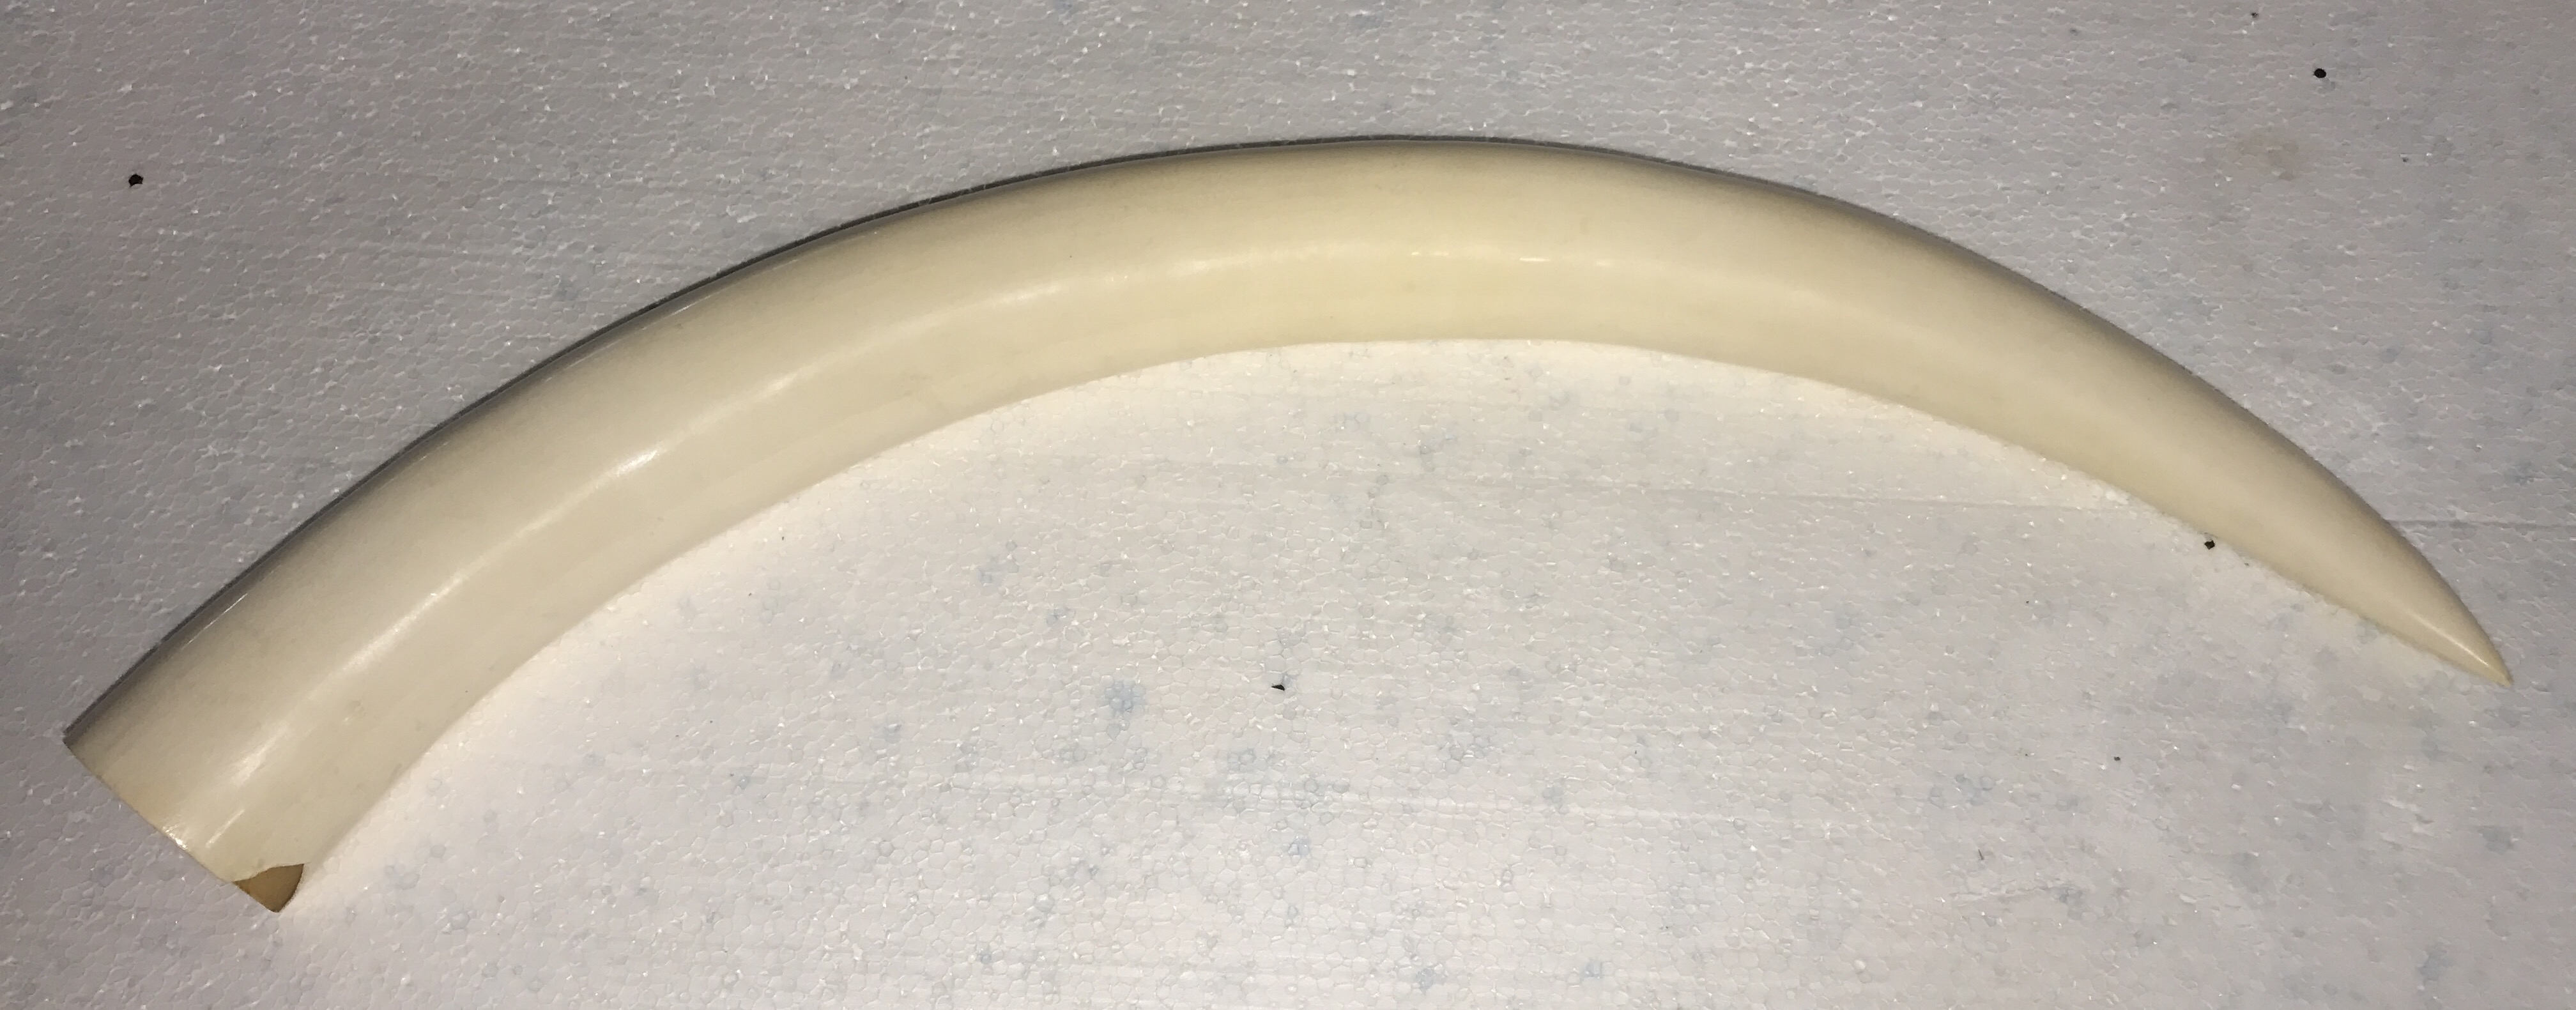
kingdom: Animalia
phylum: Chordata
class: Mammalia
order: Proboscidea
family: Elephantidae
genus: Loxodonta
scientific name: Loxodonta africana
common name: African elephant
